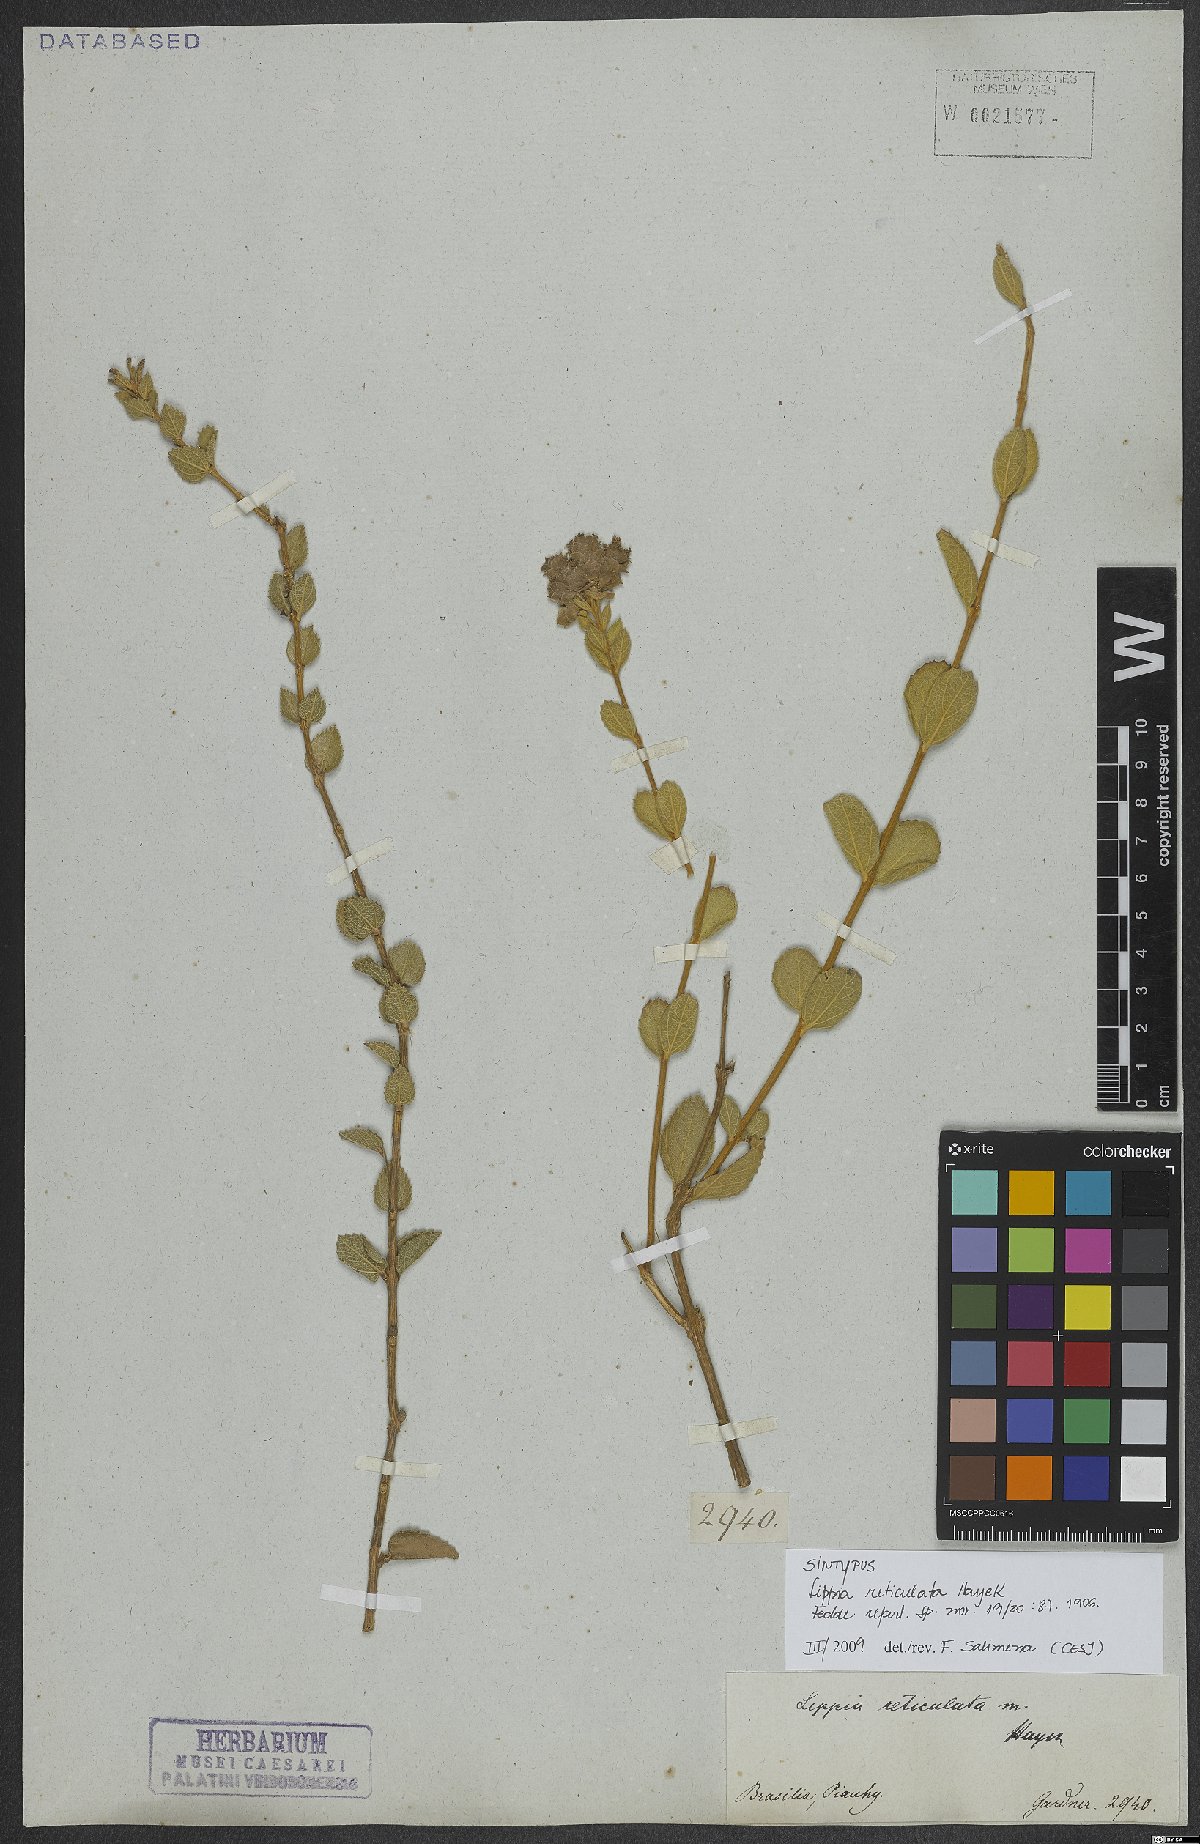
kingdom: Plantae
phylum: Tracheophyta
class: Magnoliopsida
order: Lamiales
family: Verbenaceae
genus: Lippia
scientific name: Lippia acutidens
